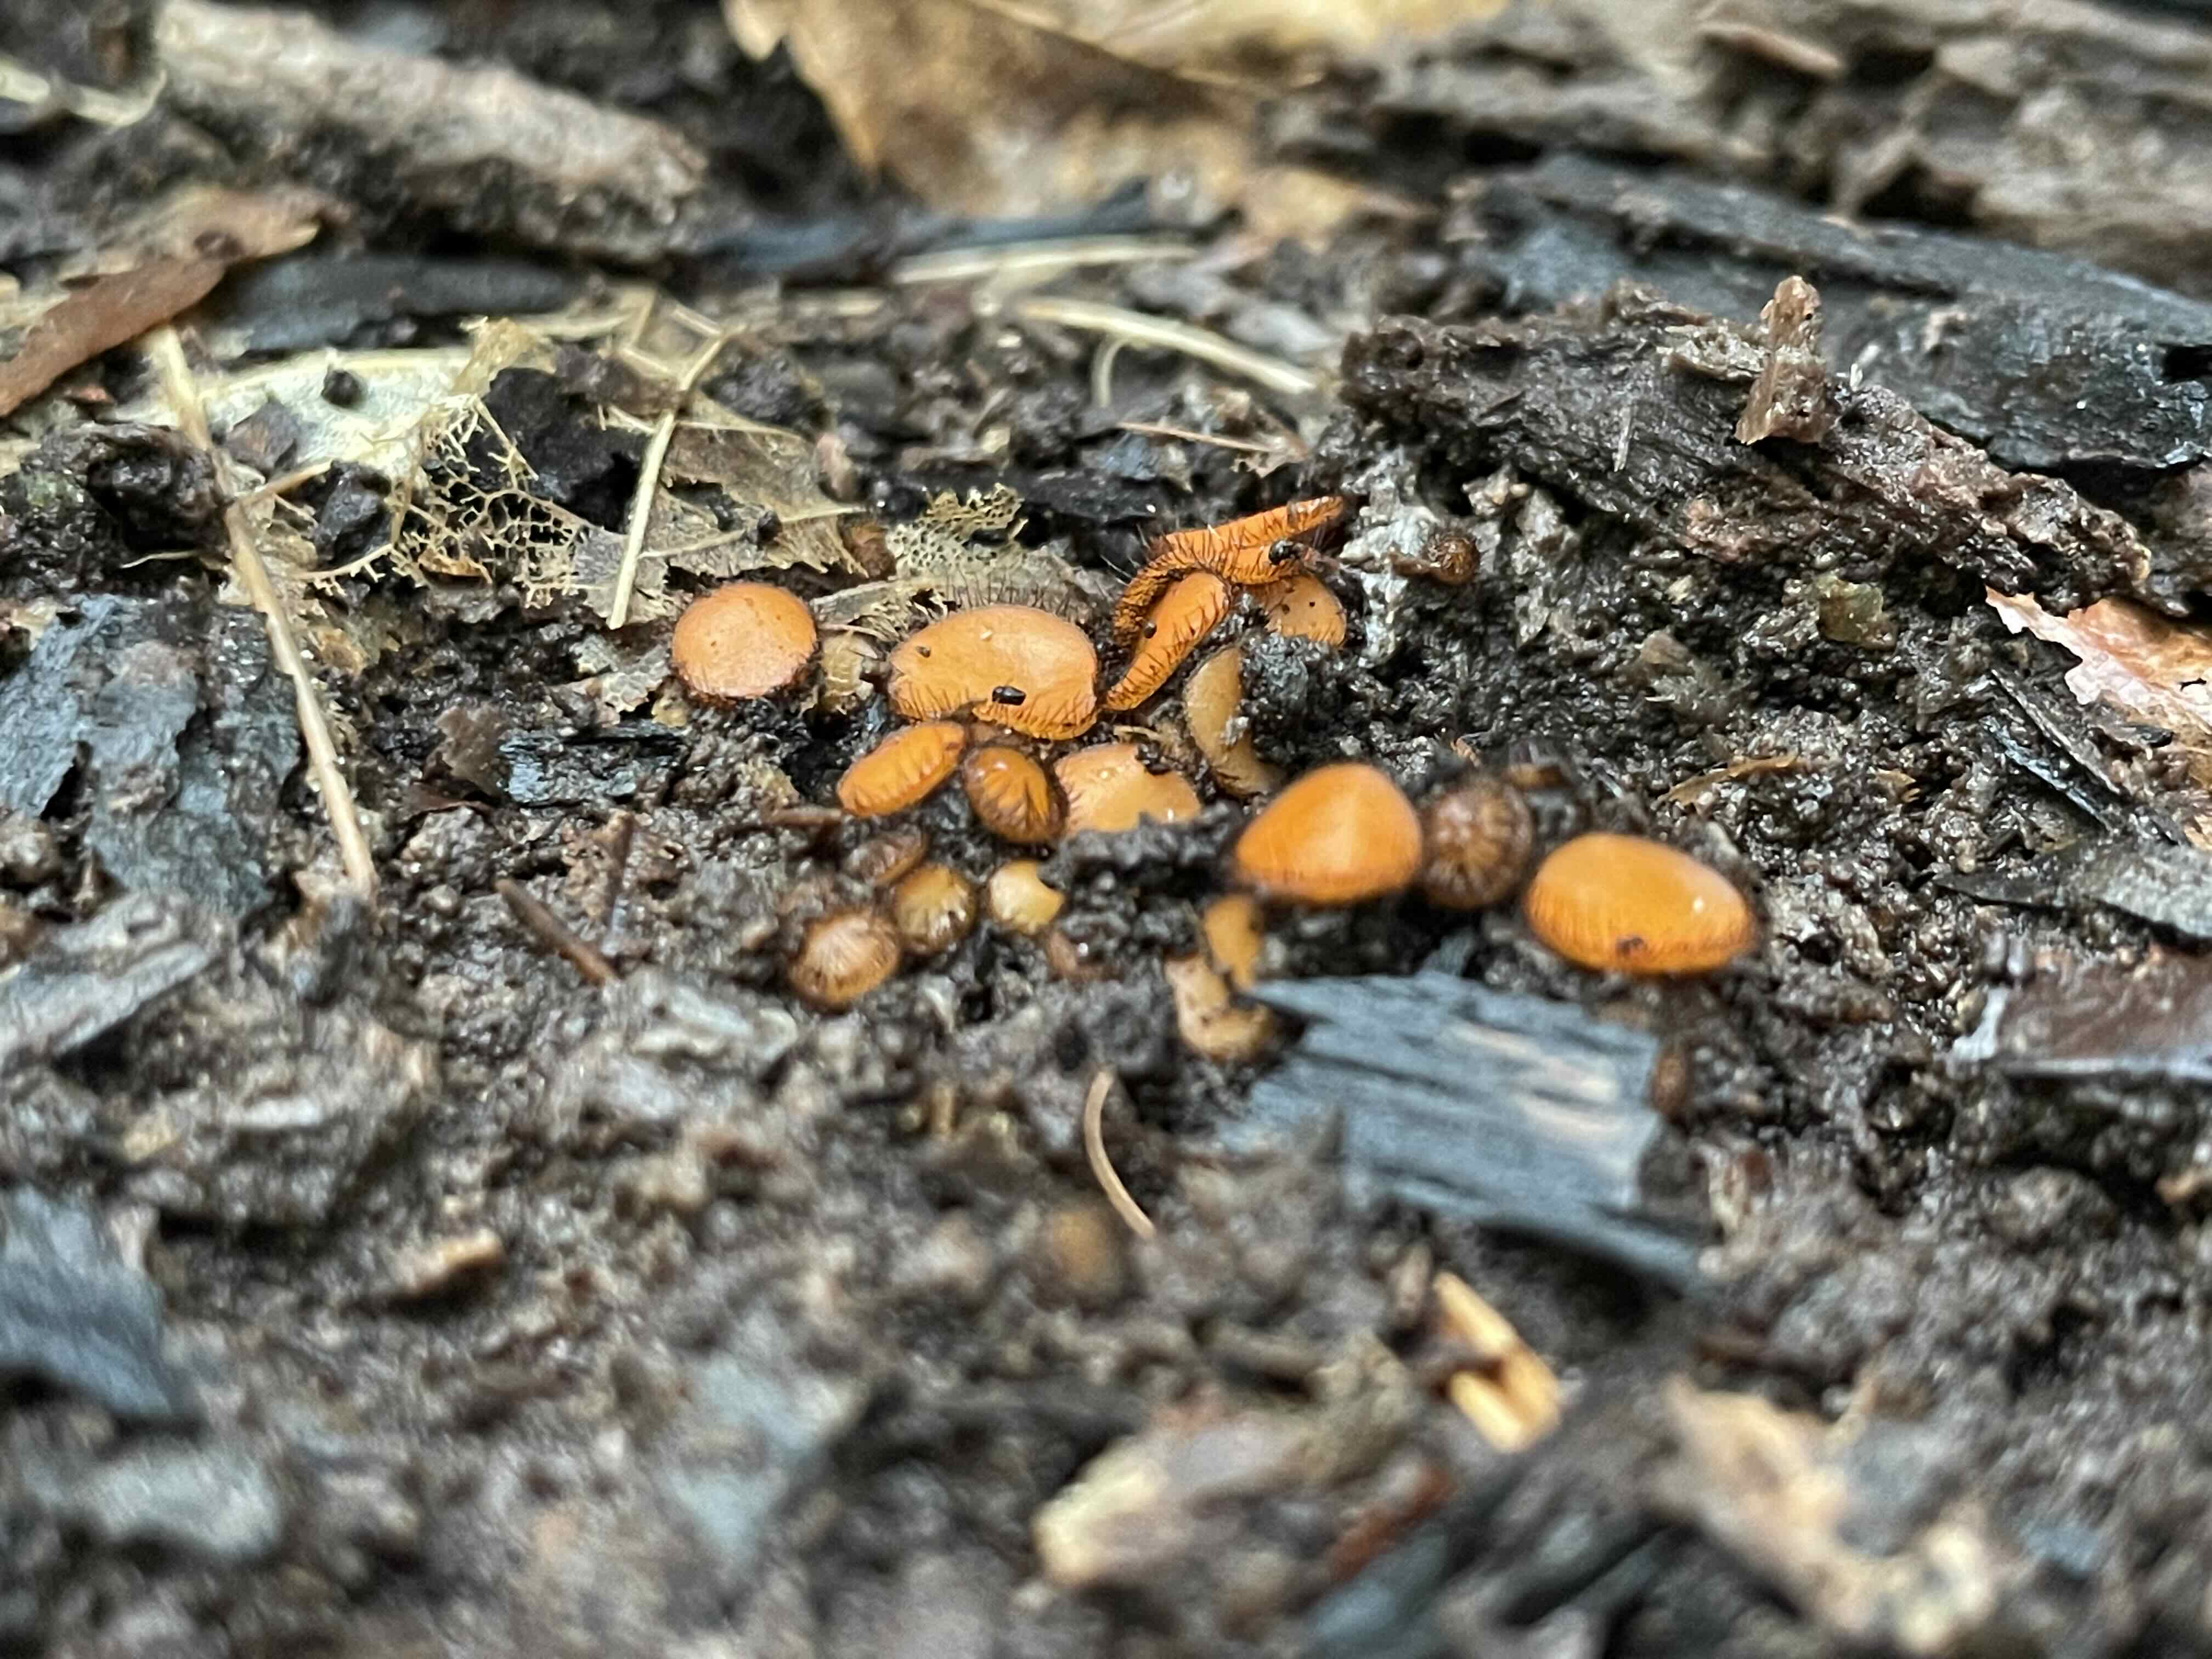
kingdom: Fungi
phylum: Ascomycota
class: Pezizomycetes
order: Pezizales
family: Pyronemataceae
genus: Scutellinia
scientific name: Scutellinia
